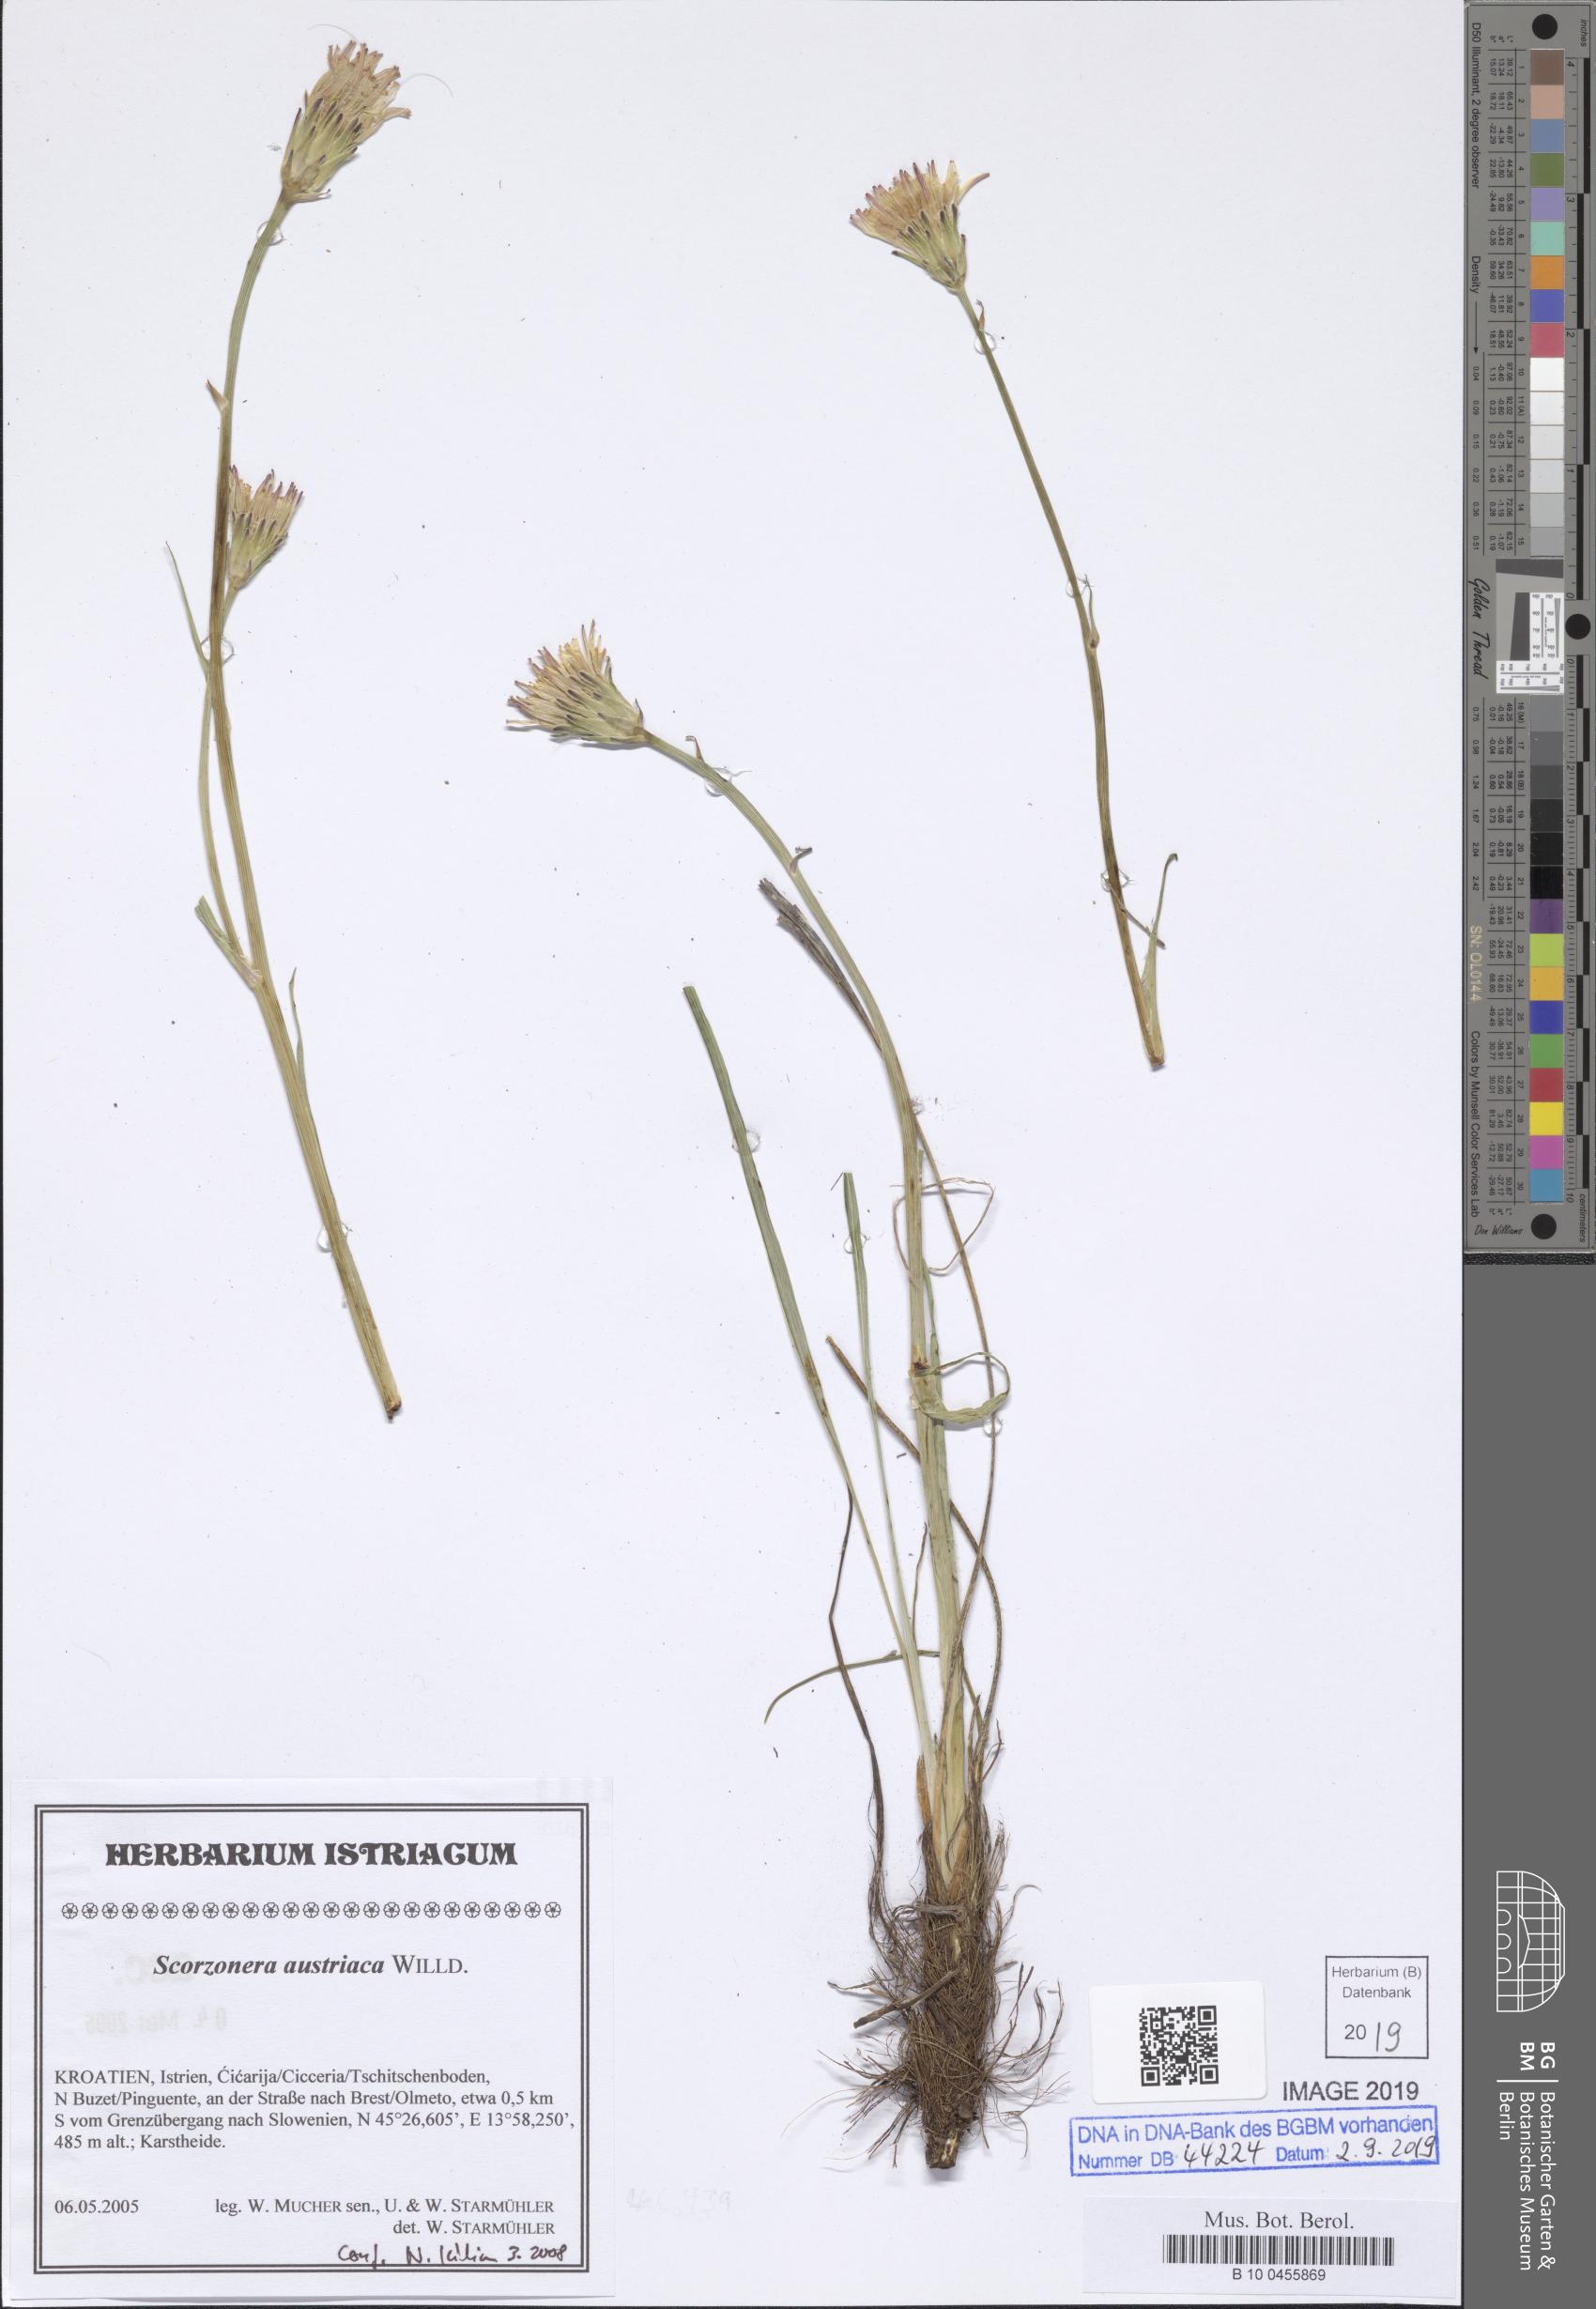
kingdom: Plantae
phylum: Tracheophyta
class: Magnoliopsida
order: Asterales
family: Asteraceae
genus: Takhtajaniantha
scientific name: Takhtajaniantha austriaca
